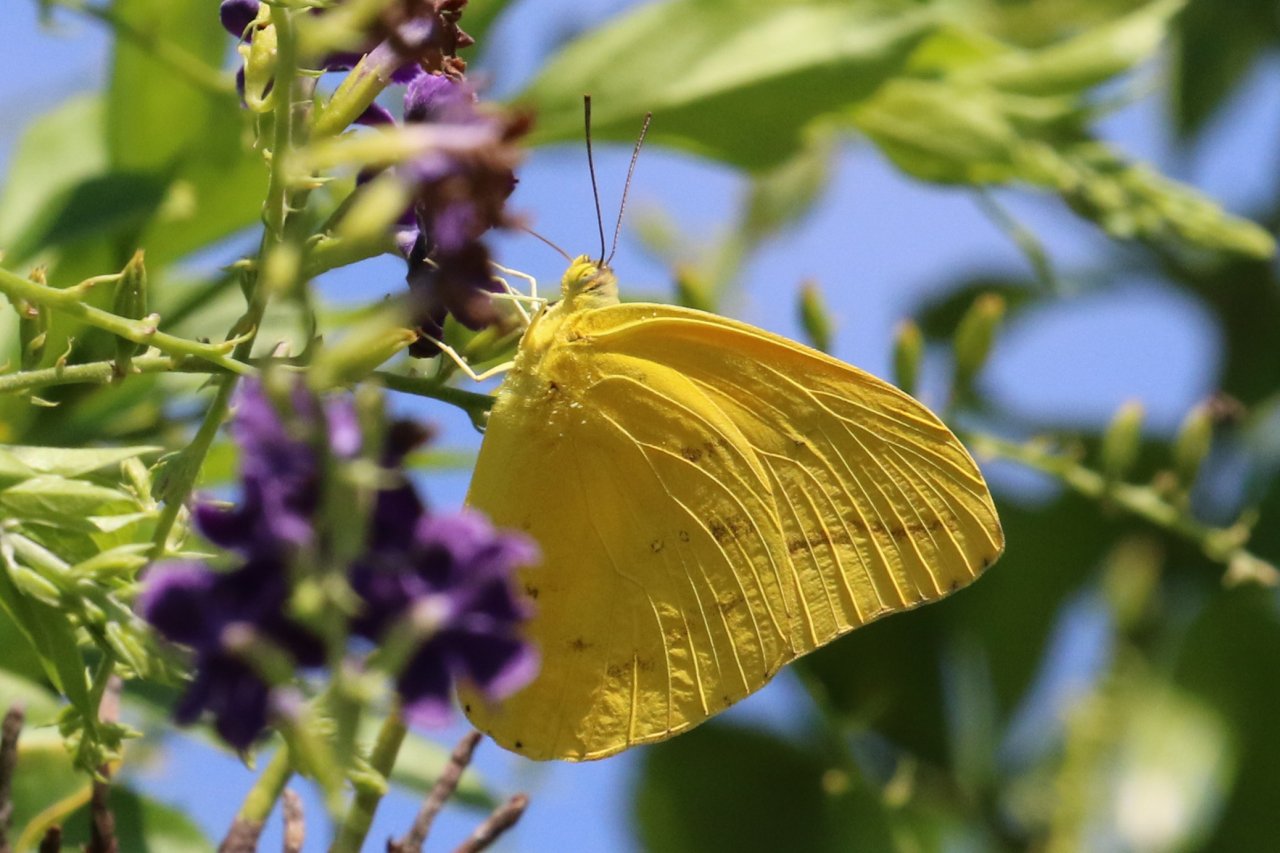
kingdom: Animalia
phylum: Arthropoda
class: Insecta
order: Lepidoptera
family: Pieridae
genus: Phoebis
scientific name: Phoebis agarithe
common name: Large Orange Sulphur
